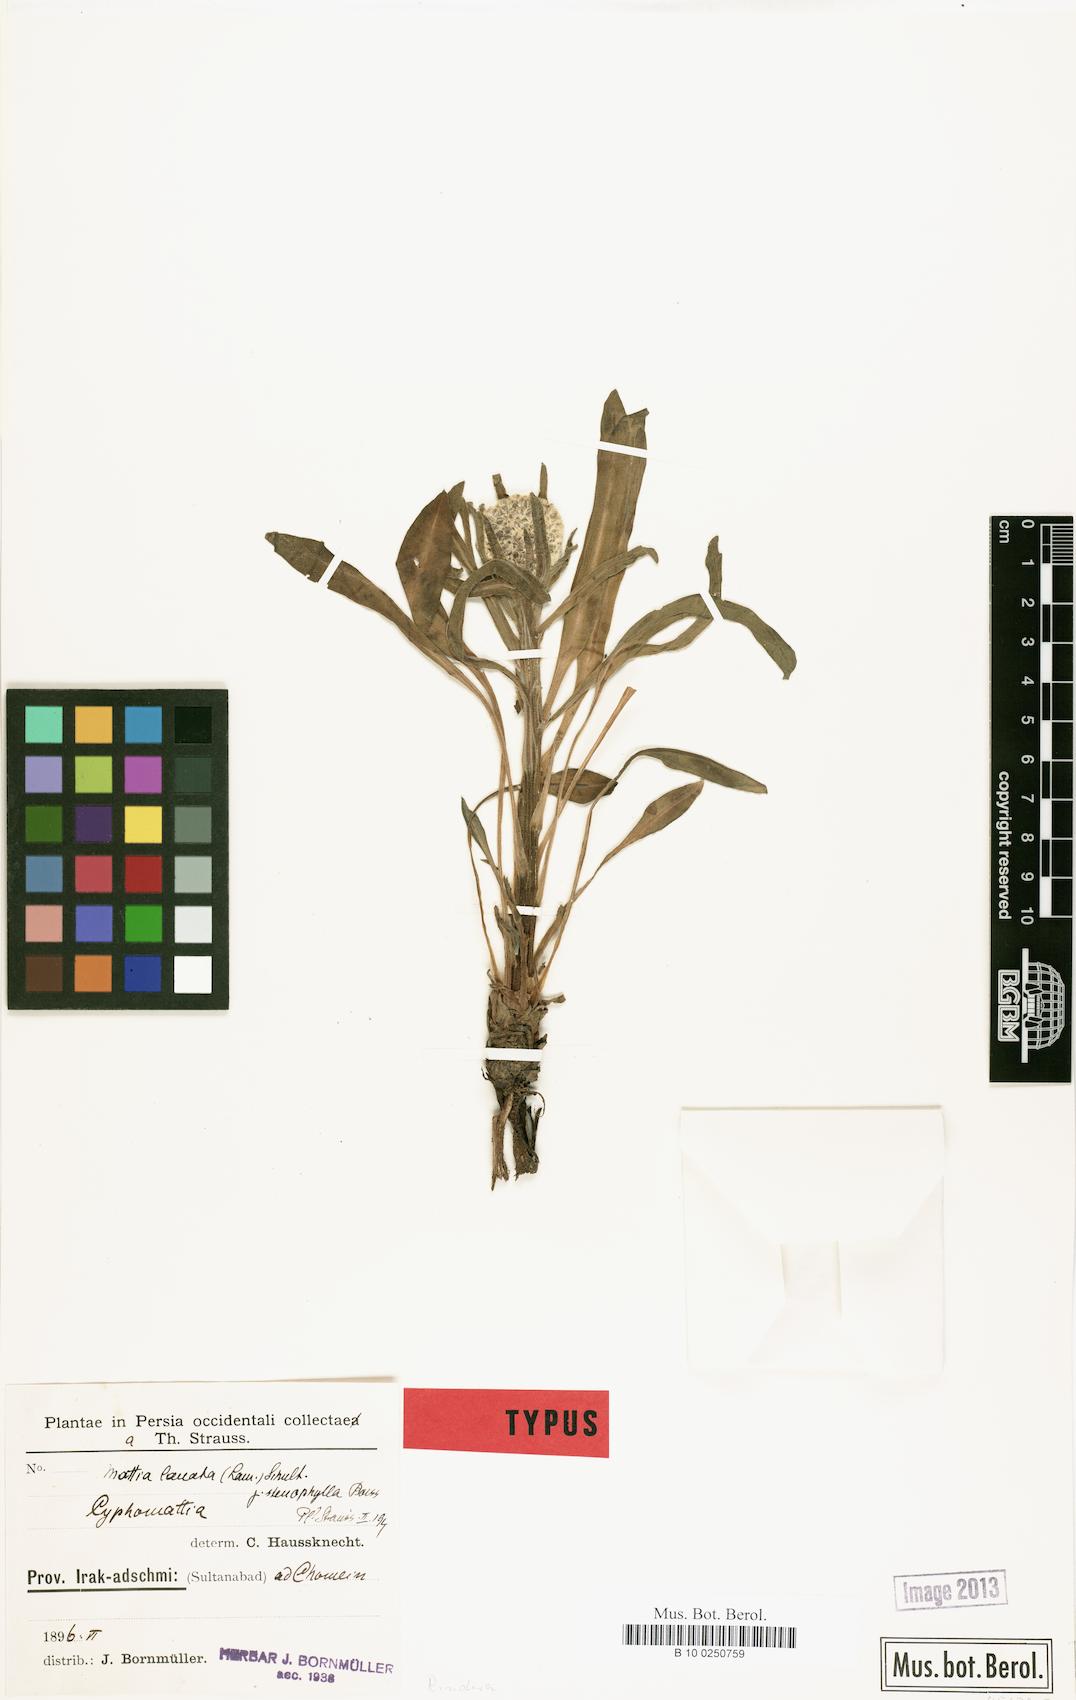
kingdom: Plantae
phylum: Tracheophyta
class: Magnoliopsida
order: Boraginales
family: Boraginaceae
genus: Rindera
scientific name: Rindera lanata
